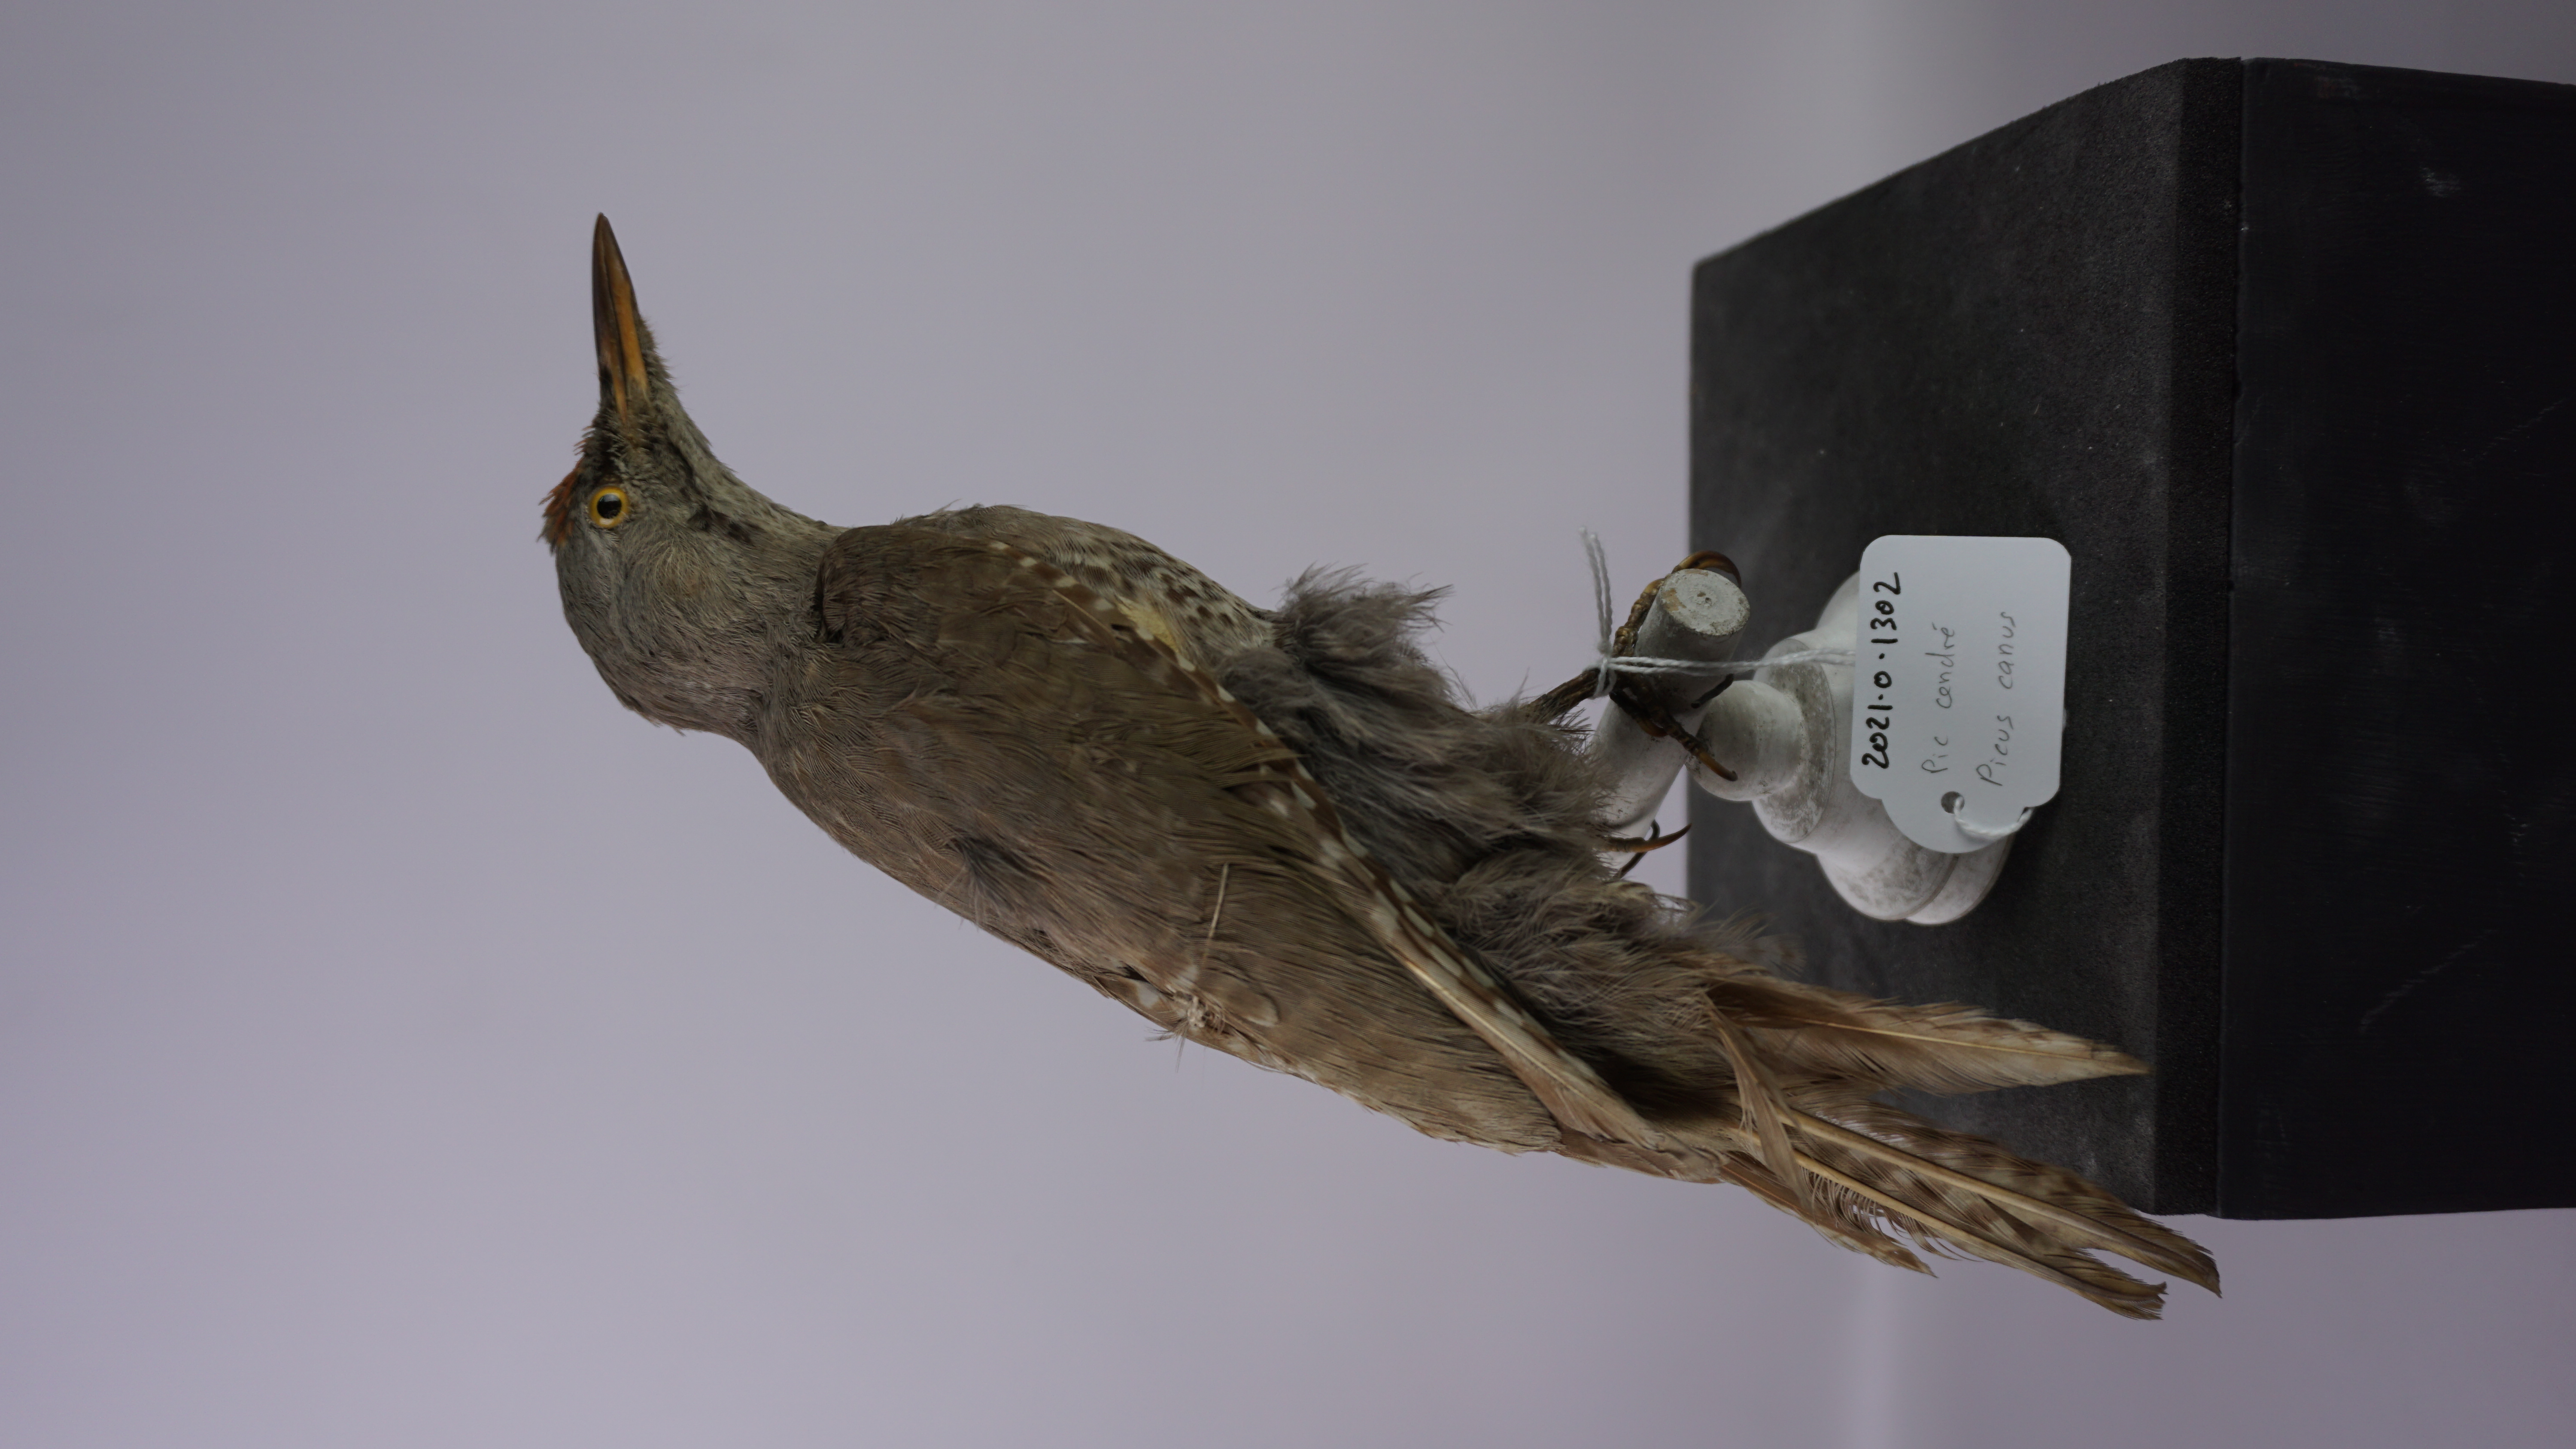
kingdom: Animalia
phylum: Chordata
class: Aves
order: Piciformes
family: Picidae
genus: Picus
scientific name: Picus canus
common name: Grey-headed woodpecker
